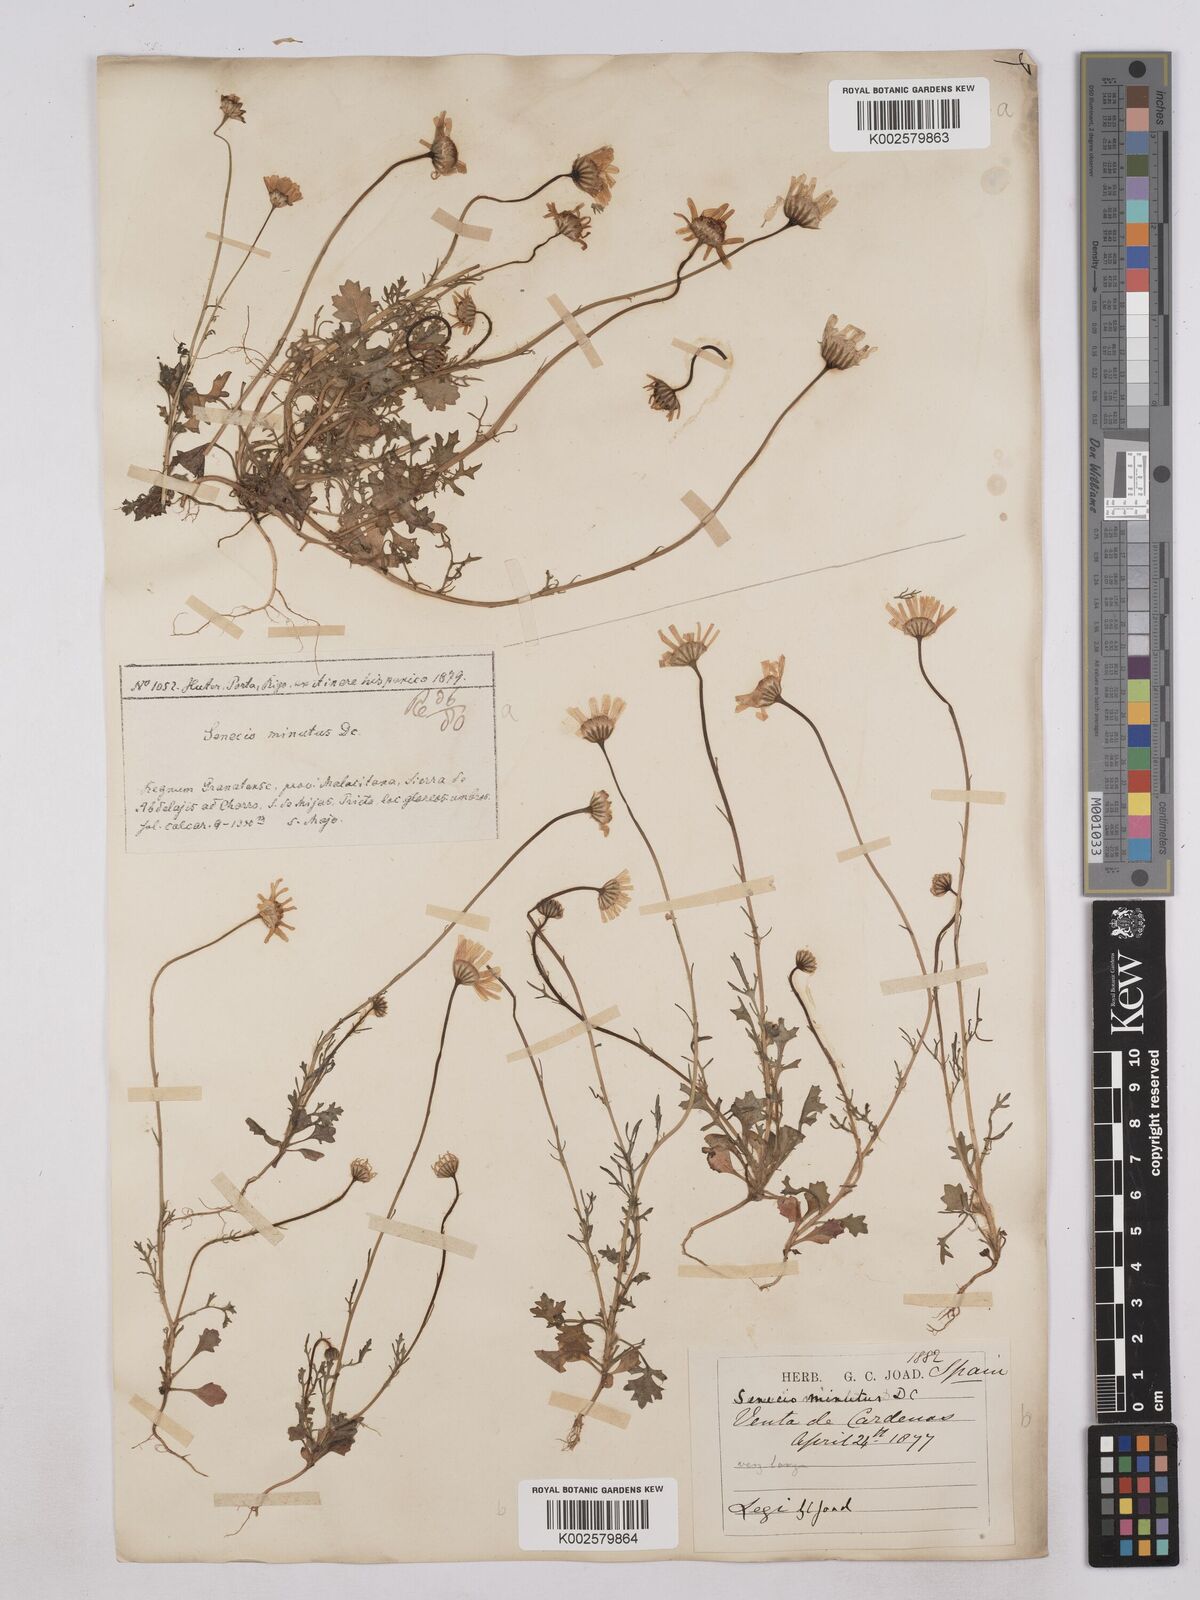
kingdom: Plantae
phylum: Tracheophyta
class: Magnoliopsida
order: Asterales
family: Asteraceae
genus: Jacobaea
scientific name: Jacobaea minuta
